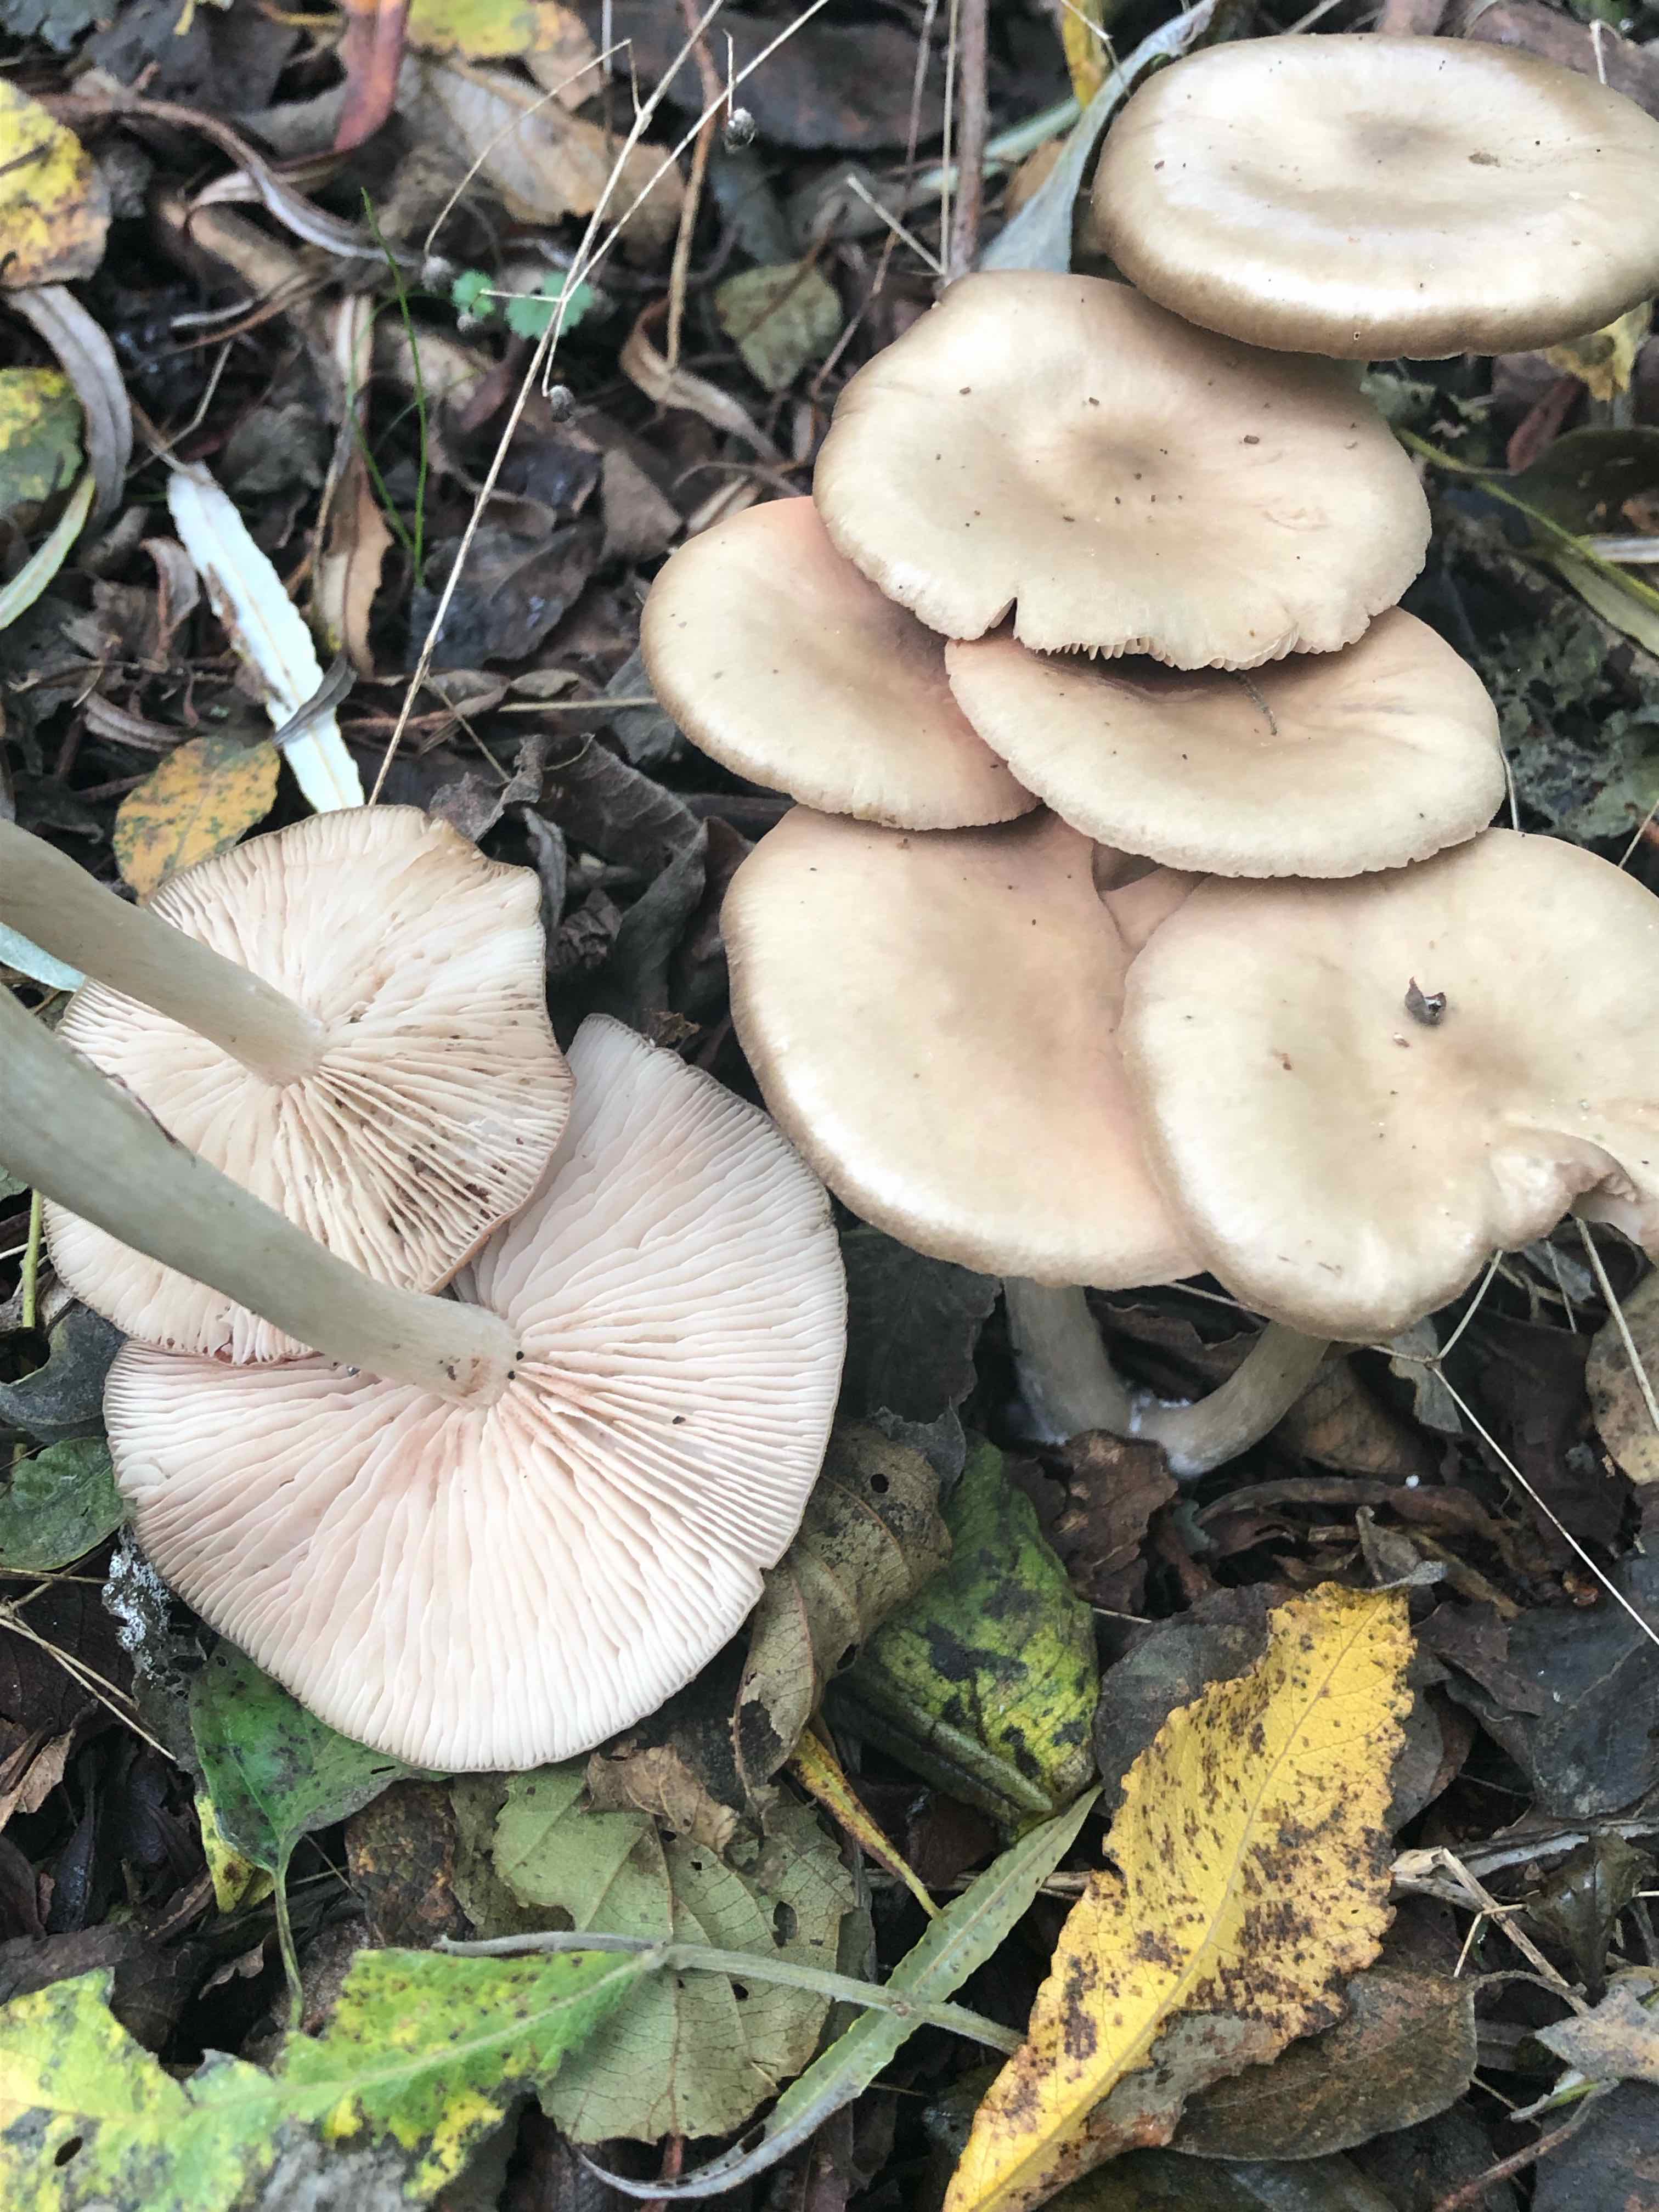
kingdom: Fungi
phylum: Basidiomycota
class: Agaricomycetes
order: Agaricales
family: Entolomataceae
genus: Entoloma
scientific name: Entoloma
